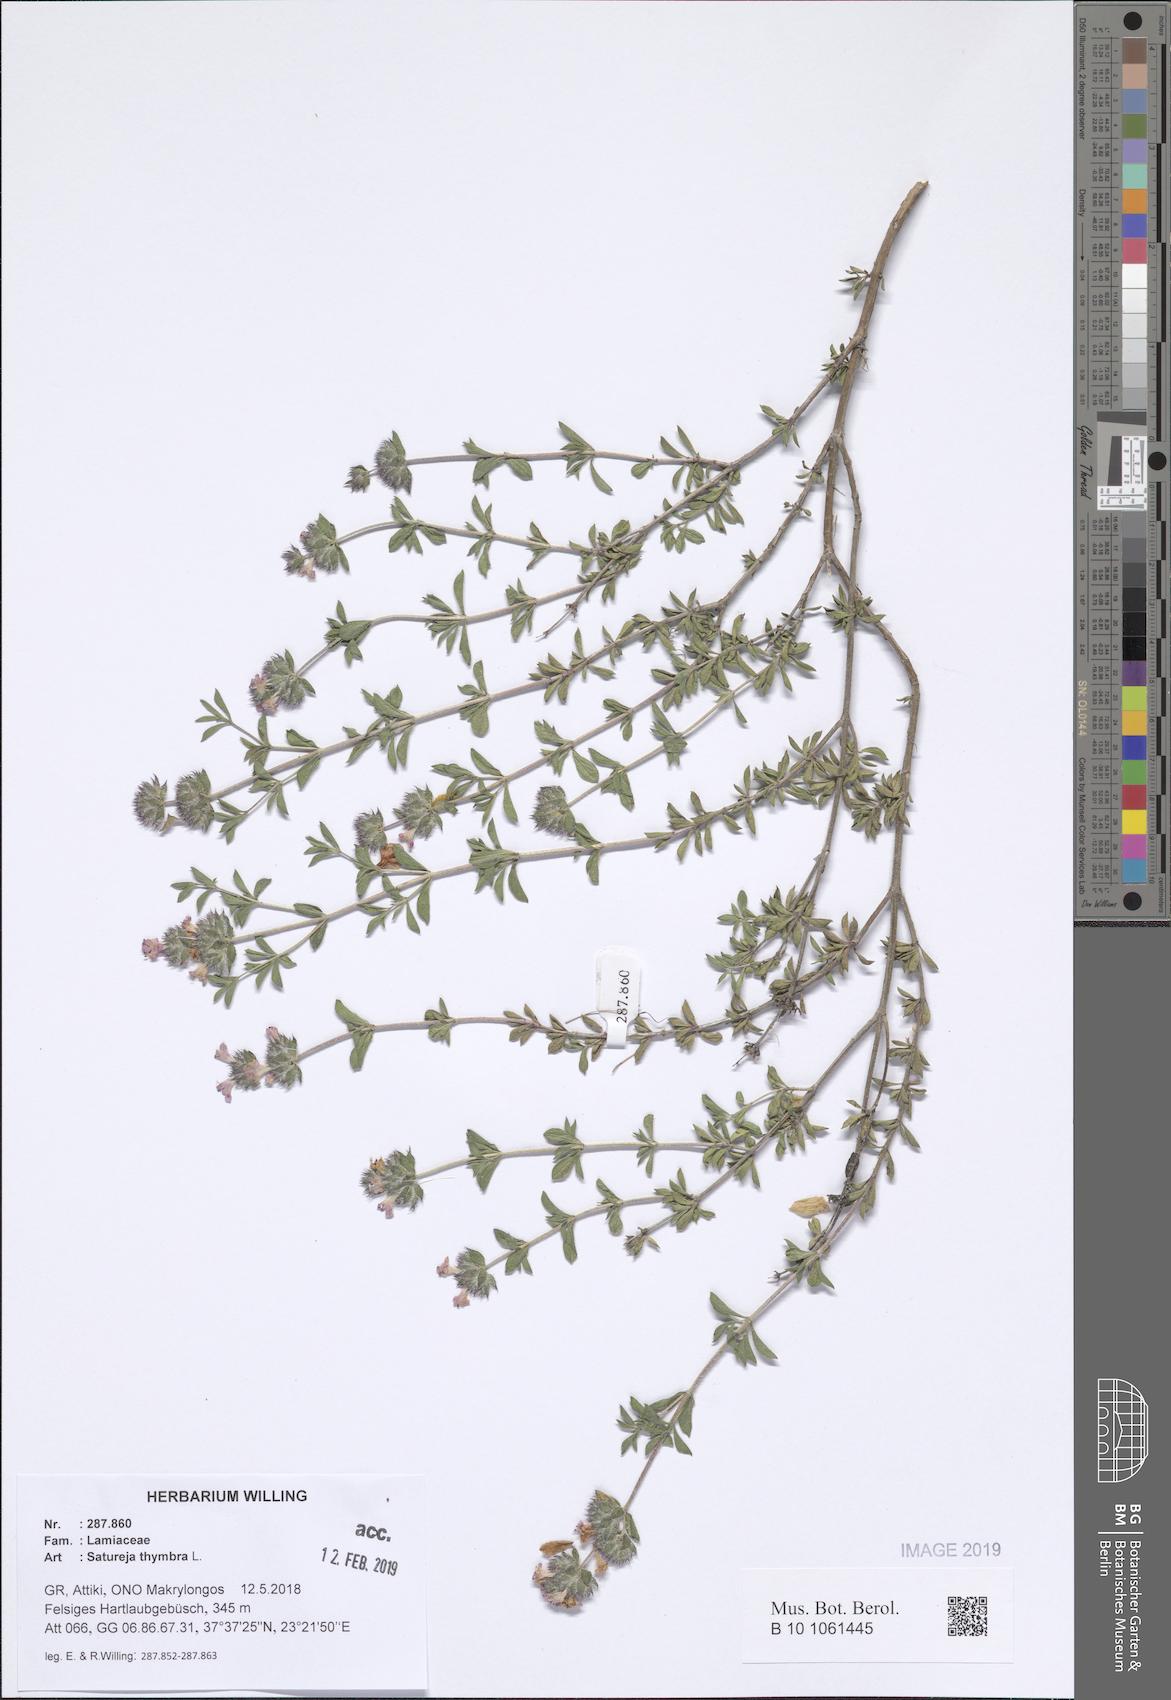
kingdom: Plantae
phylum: Tracheophyta
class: Magnoliopsida
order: Lamiales
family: Lamiaceae
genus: Satureja
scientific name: Satureja thymbra
